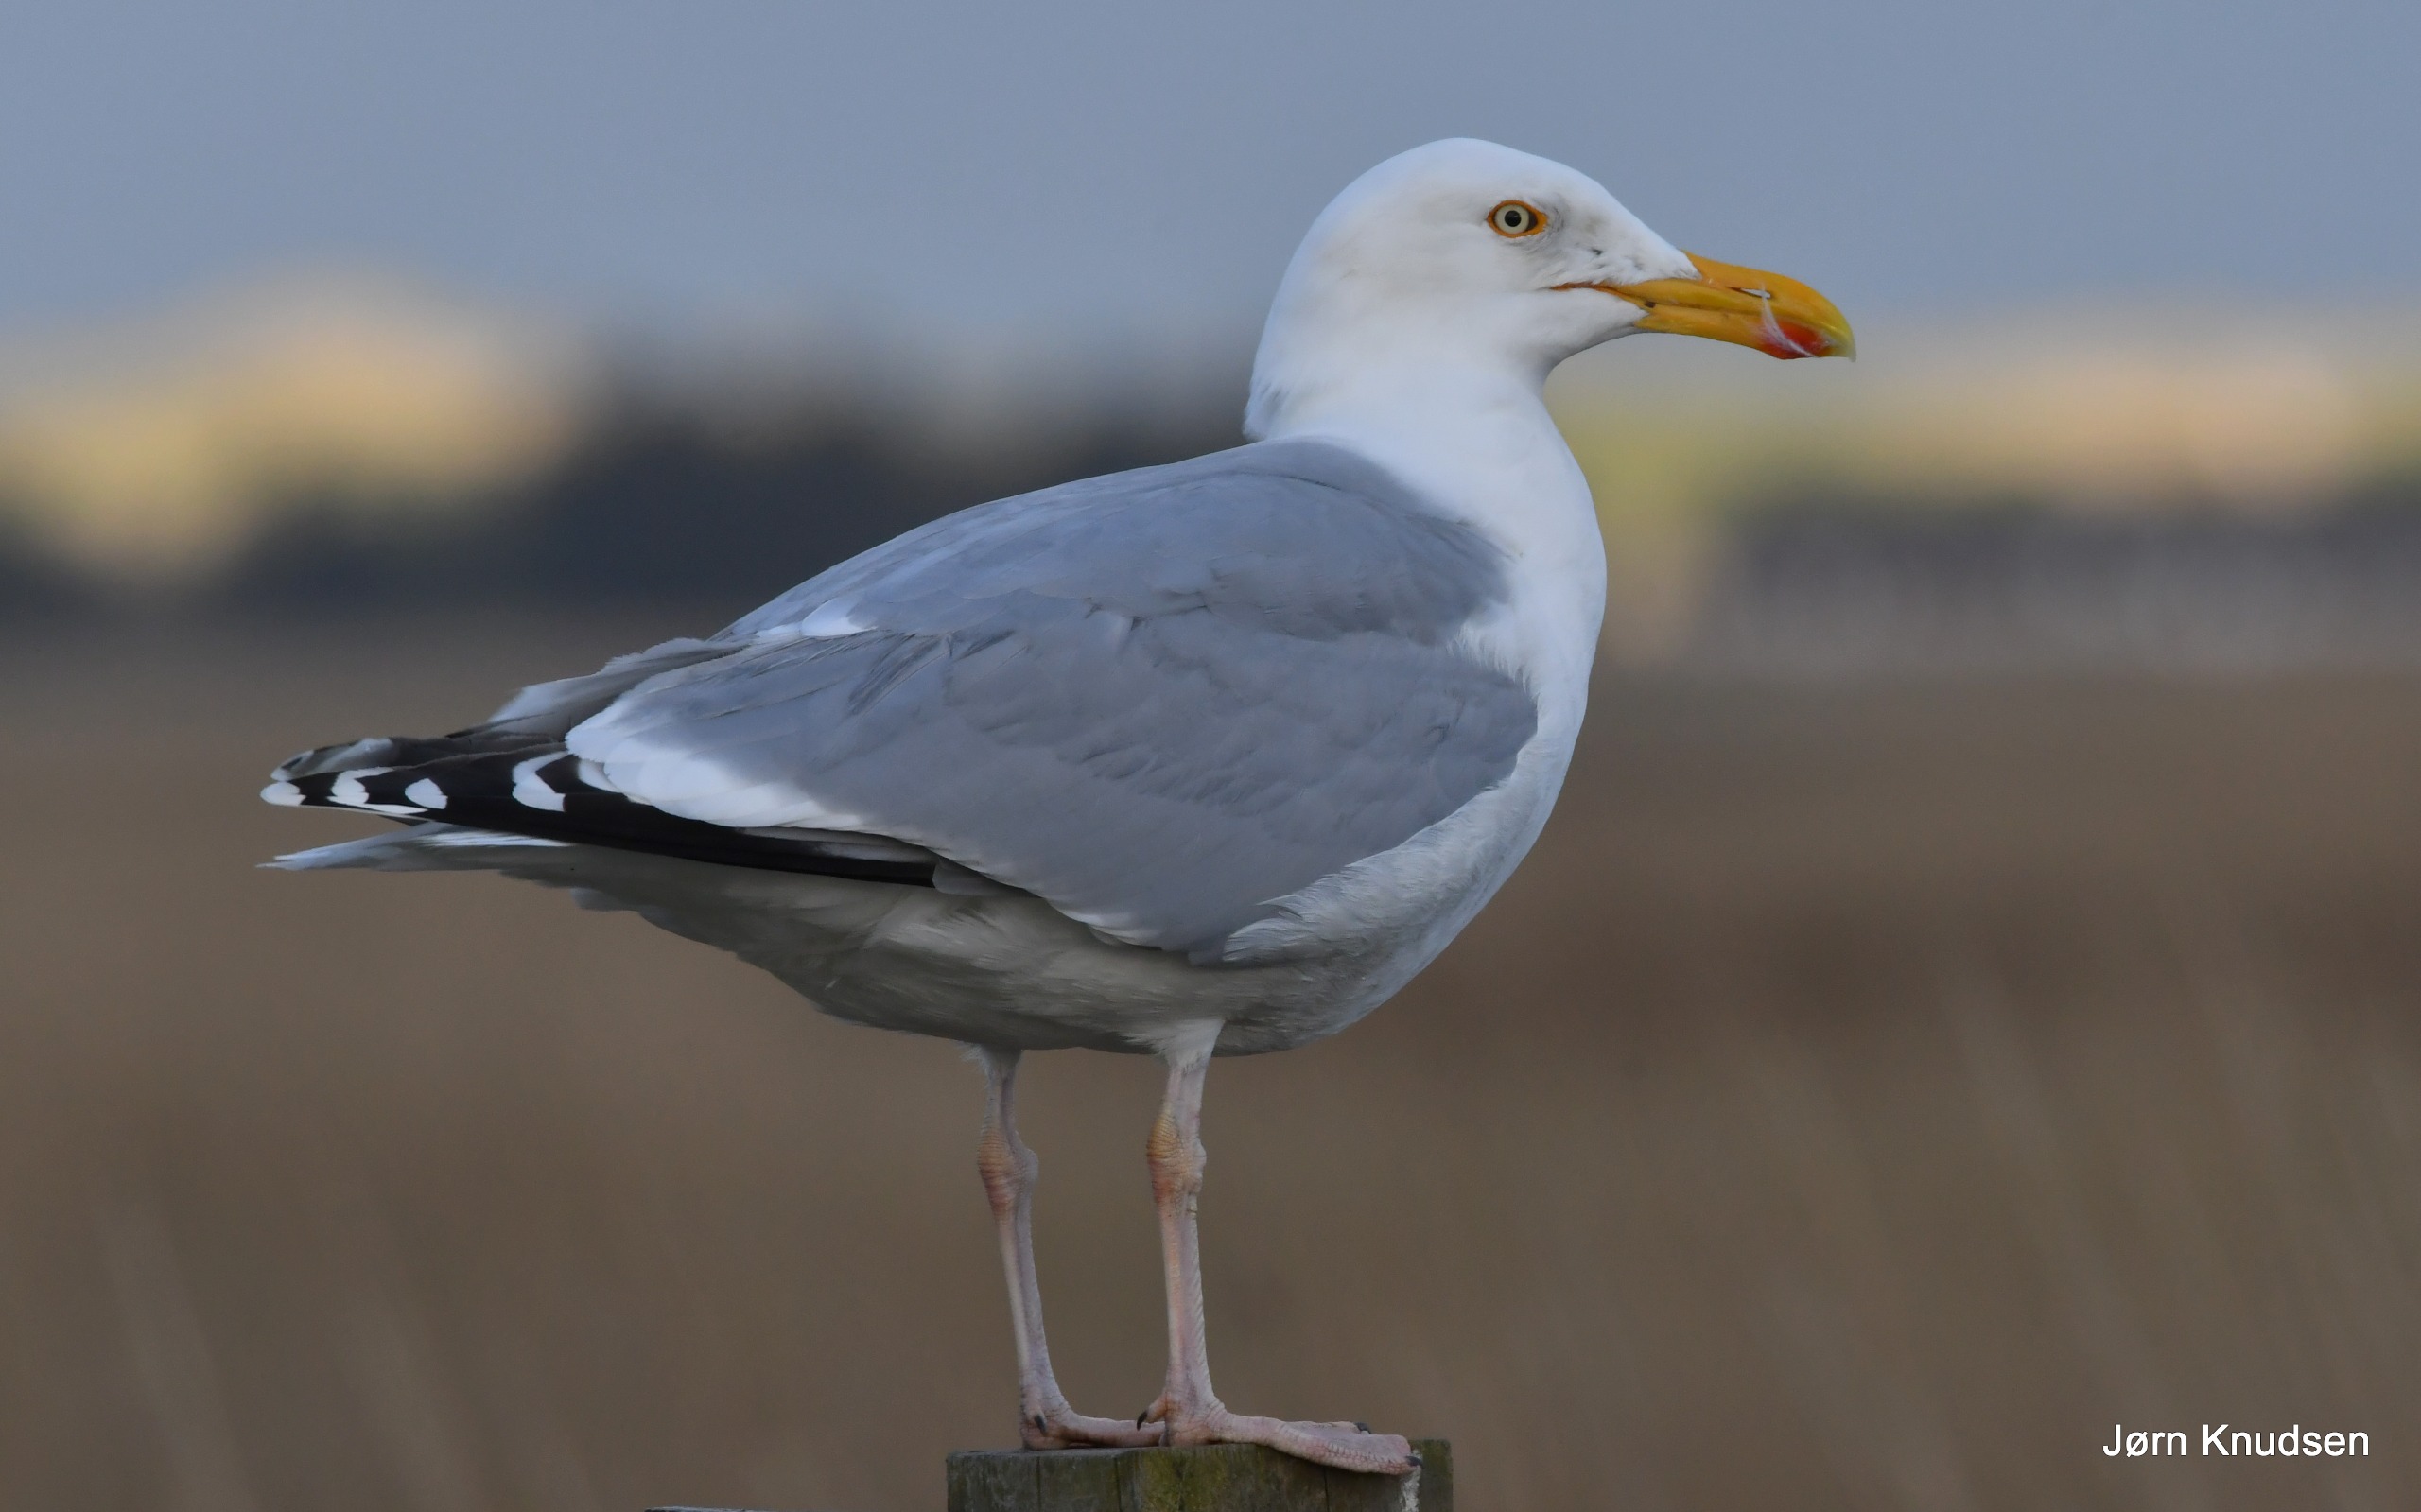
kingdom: Animalia
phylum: Chordata
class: Aves
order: Charadriiformes
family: Laridae
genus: Larus
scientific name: Larus argentatus
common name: Sølvmåge
